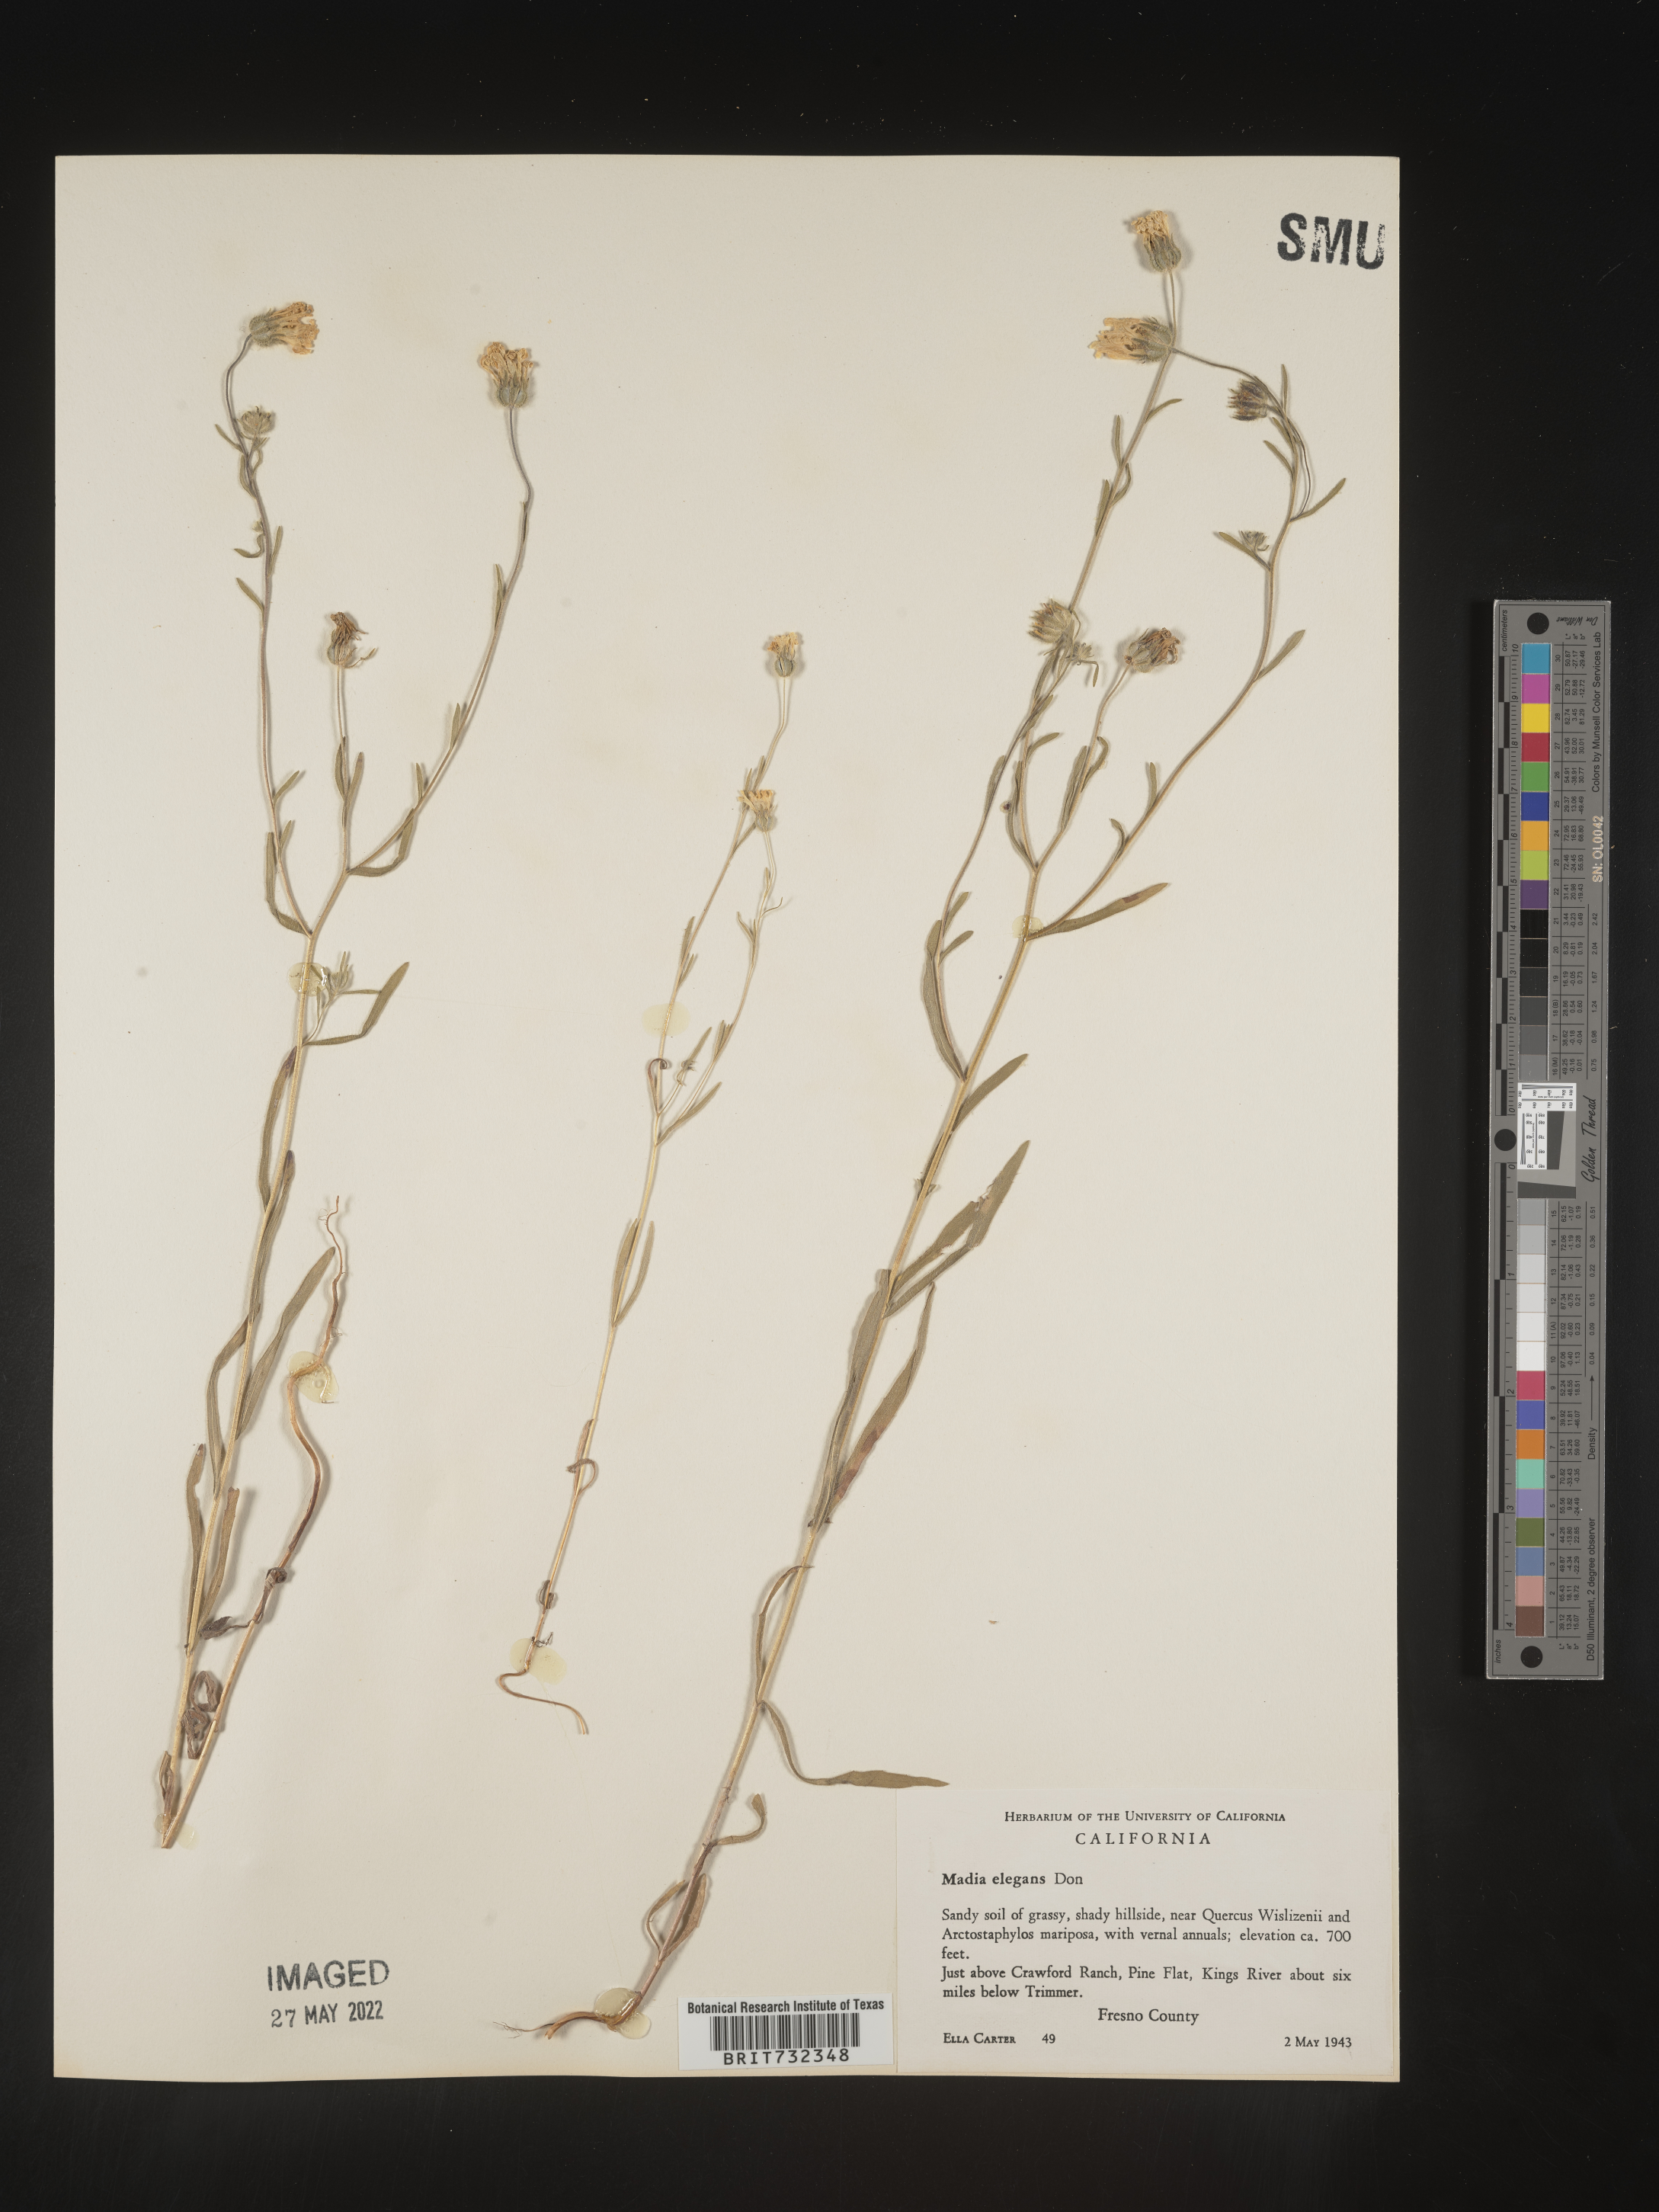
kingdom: Plantae
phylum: Tracheophyta
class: Magnoliopsida
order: Asterales
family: Asteraceae
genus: Madia
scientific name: Madia
